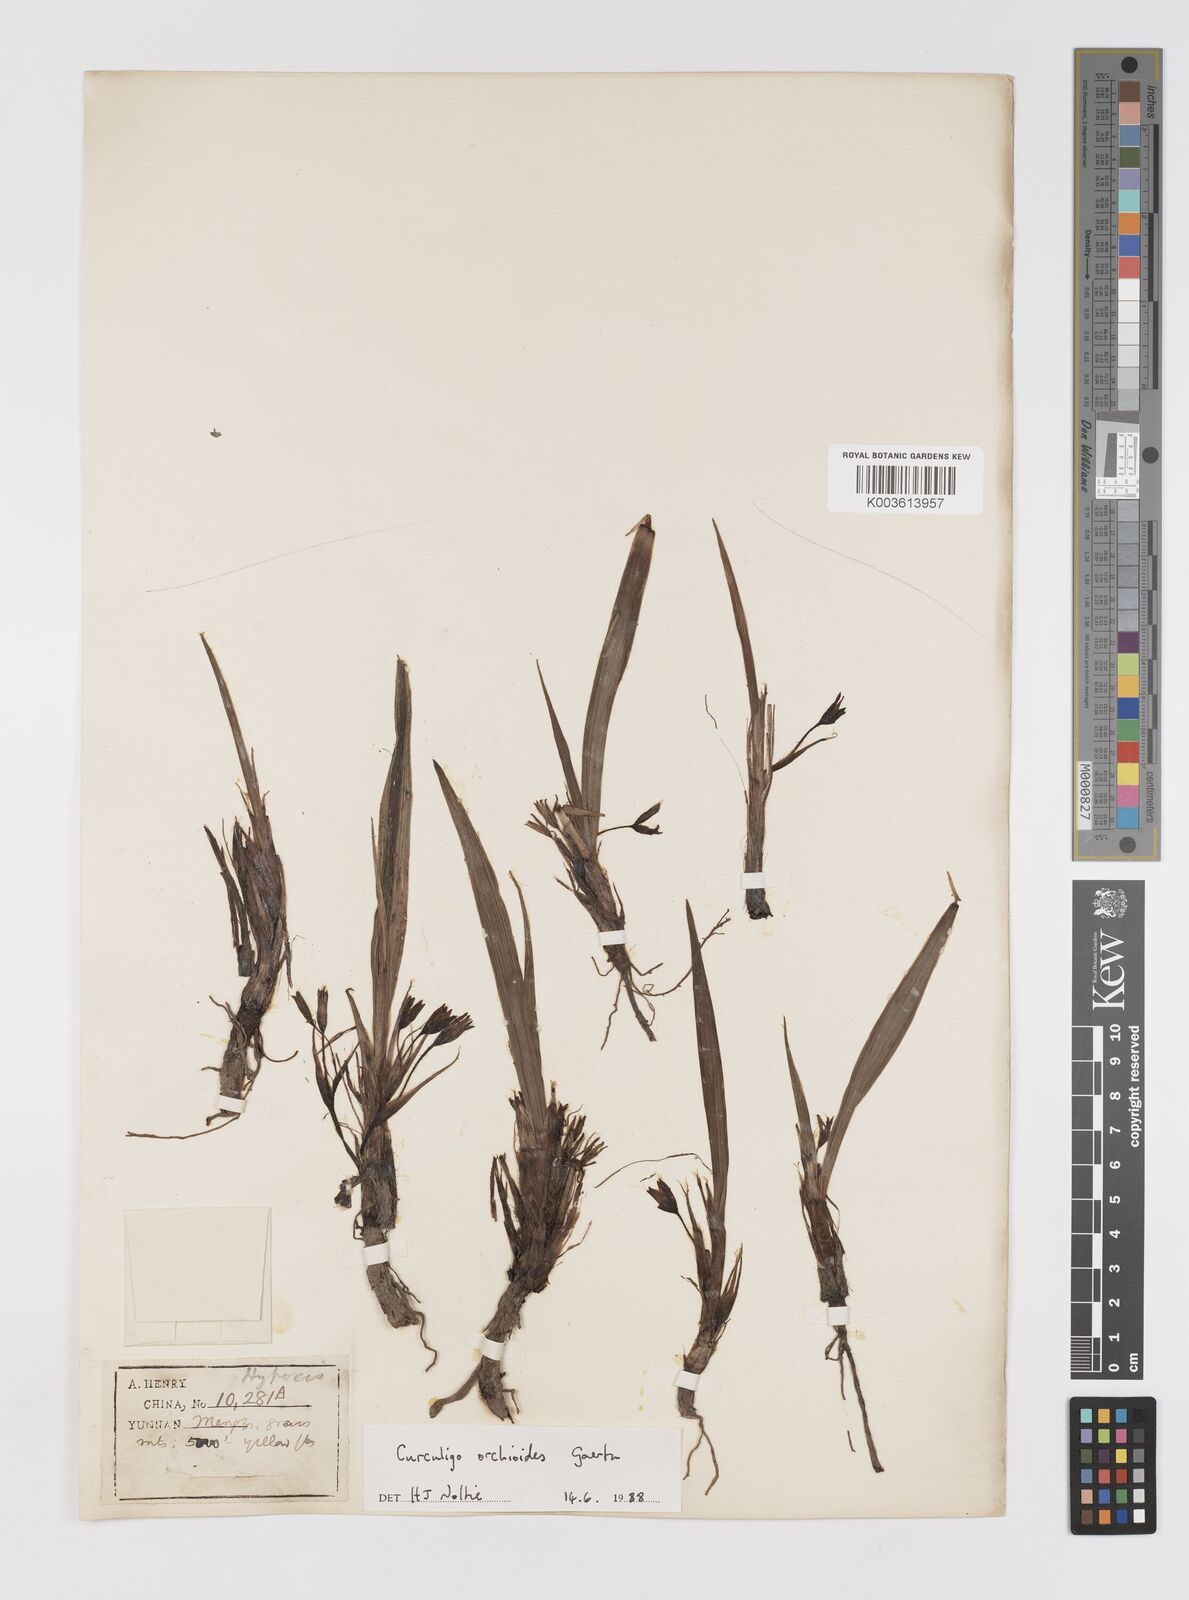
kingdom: Plantae
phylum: Tracheophyta
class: Liliopsida
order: Asparagales
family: Hypoxidaceae
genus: Curculigo
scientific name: Curculigo orchioides
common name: Golden eye-grass
